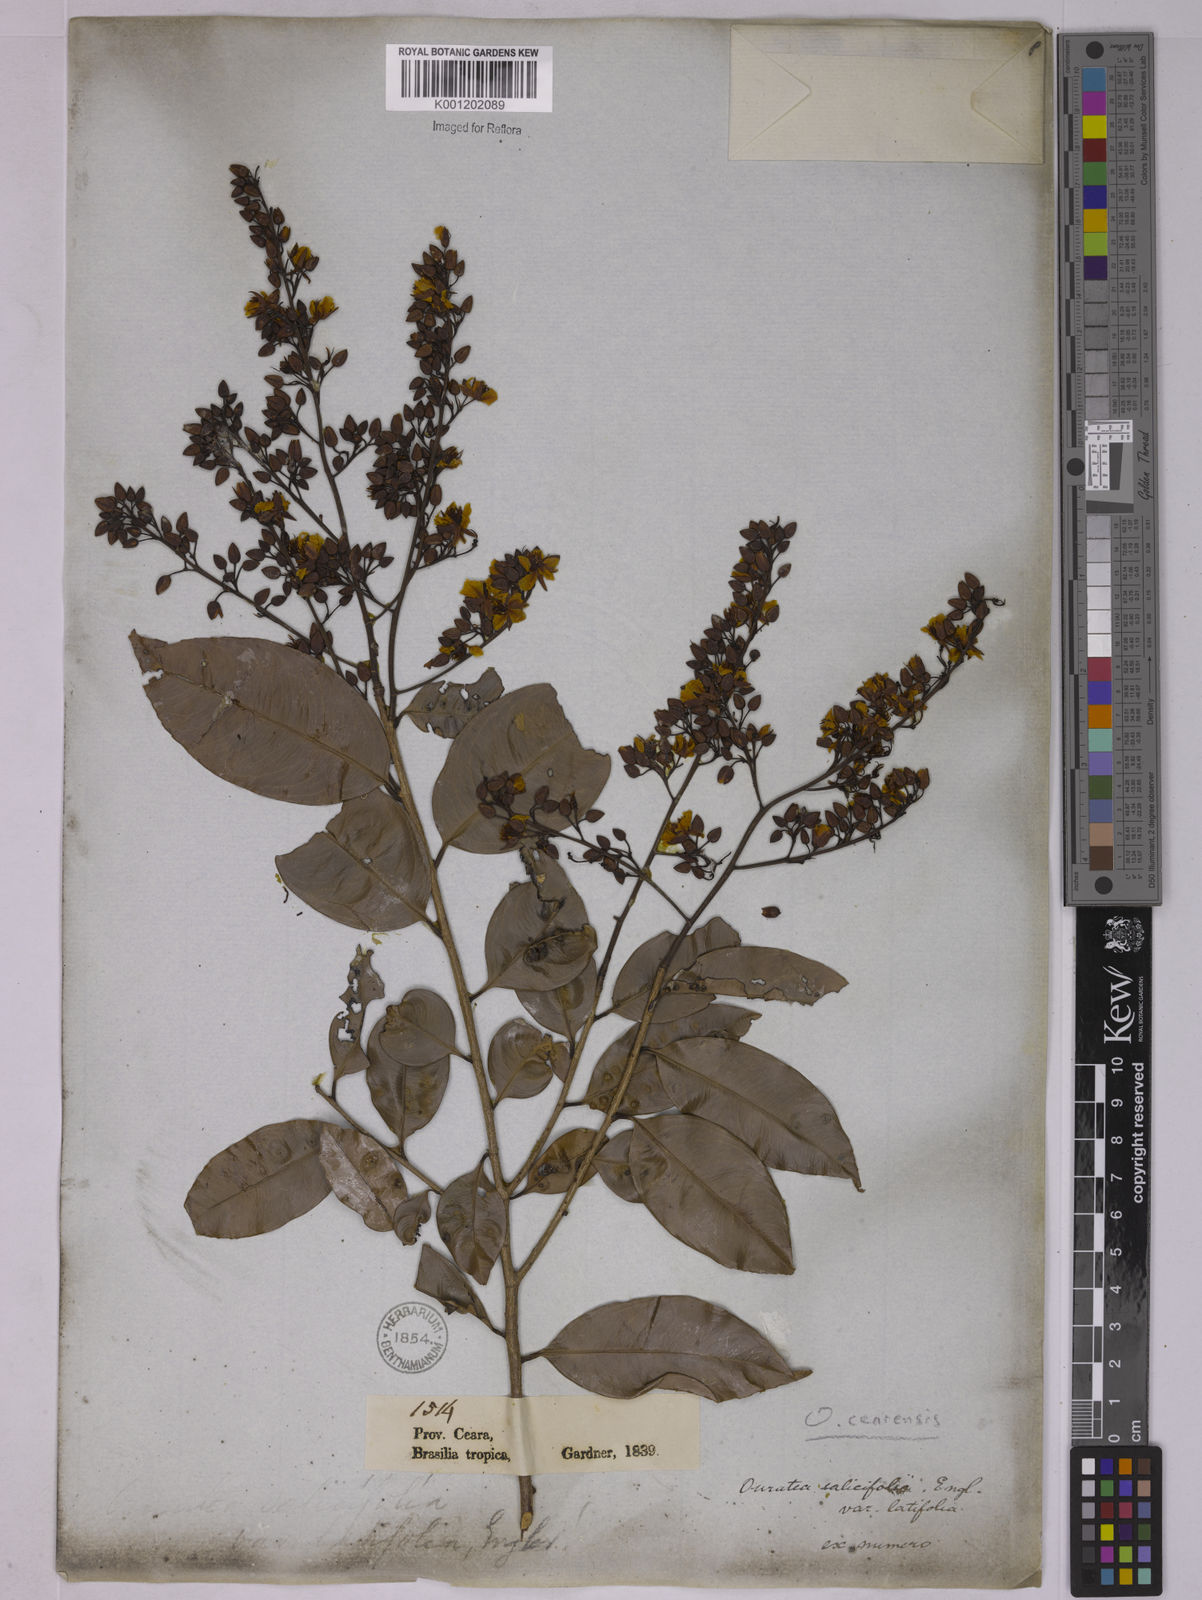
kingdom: Plantae
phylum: Tracheophyta
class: Magnoliopsida
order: Malpighiales
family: Ochnaceae
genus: Ouratea
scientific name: Ouratea cearensis
